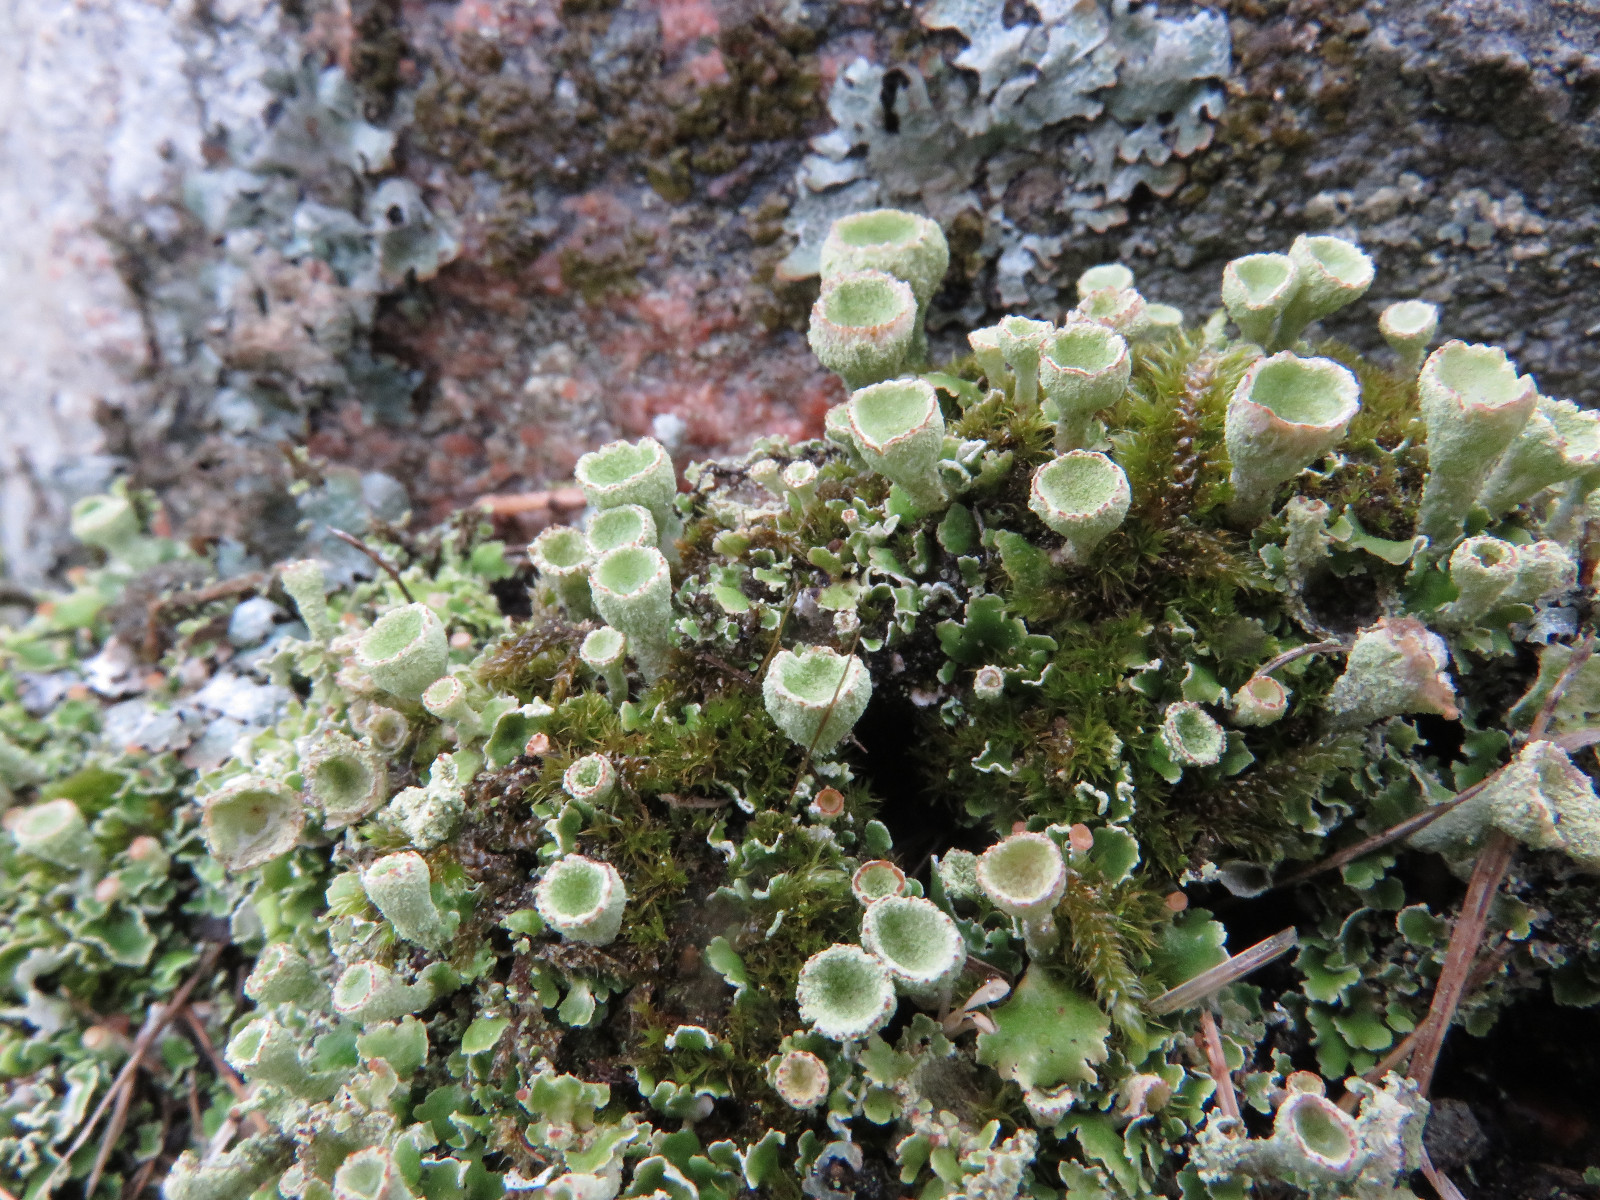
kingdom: Fungi
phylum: Ascomycota
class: Lecanoromycetes
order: Lecanorales
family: Cladoniaceae
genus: Cladonia
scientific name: Cladonia humilis
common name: lav bægerlav
